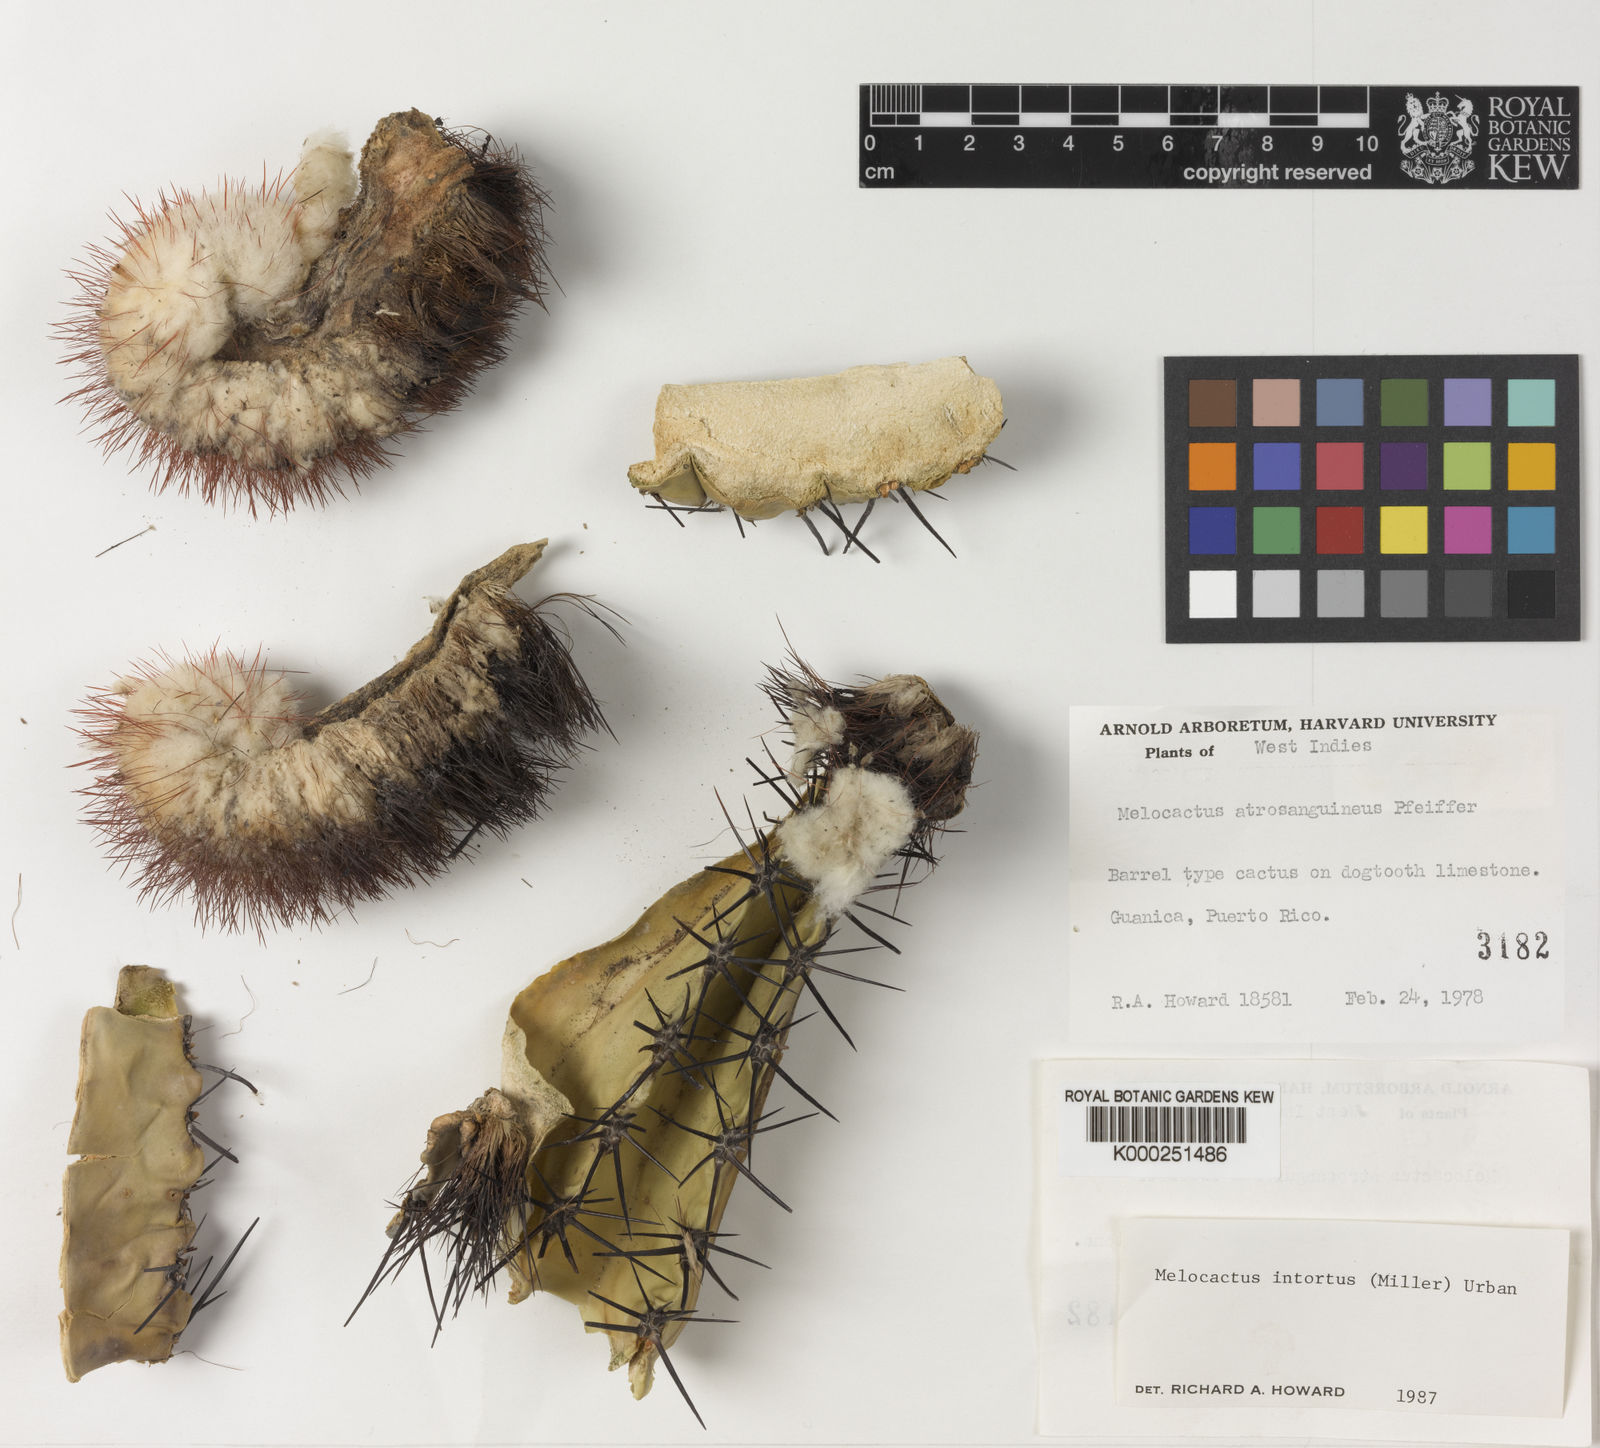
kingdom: Plantae
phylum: Tracheophyta
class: Magnoliopsida
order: Caryophyllales
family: Cactaceae
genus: Melocactus
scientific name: Melocactus
